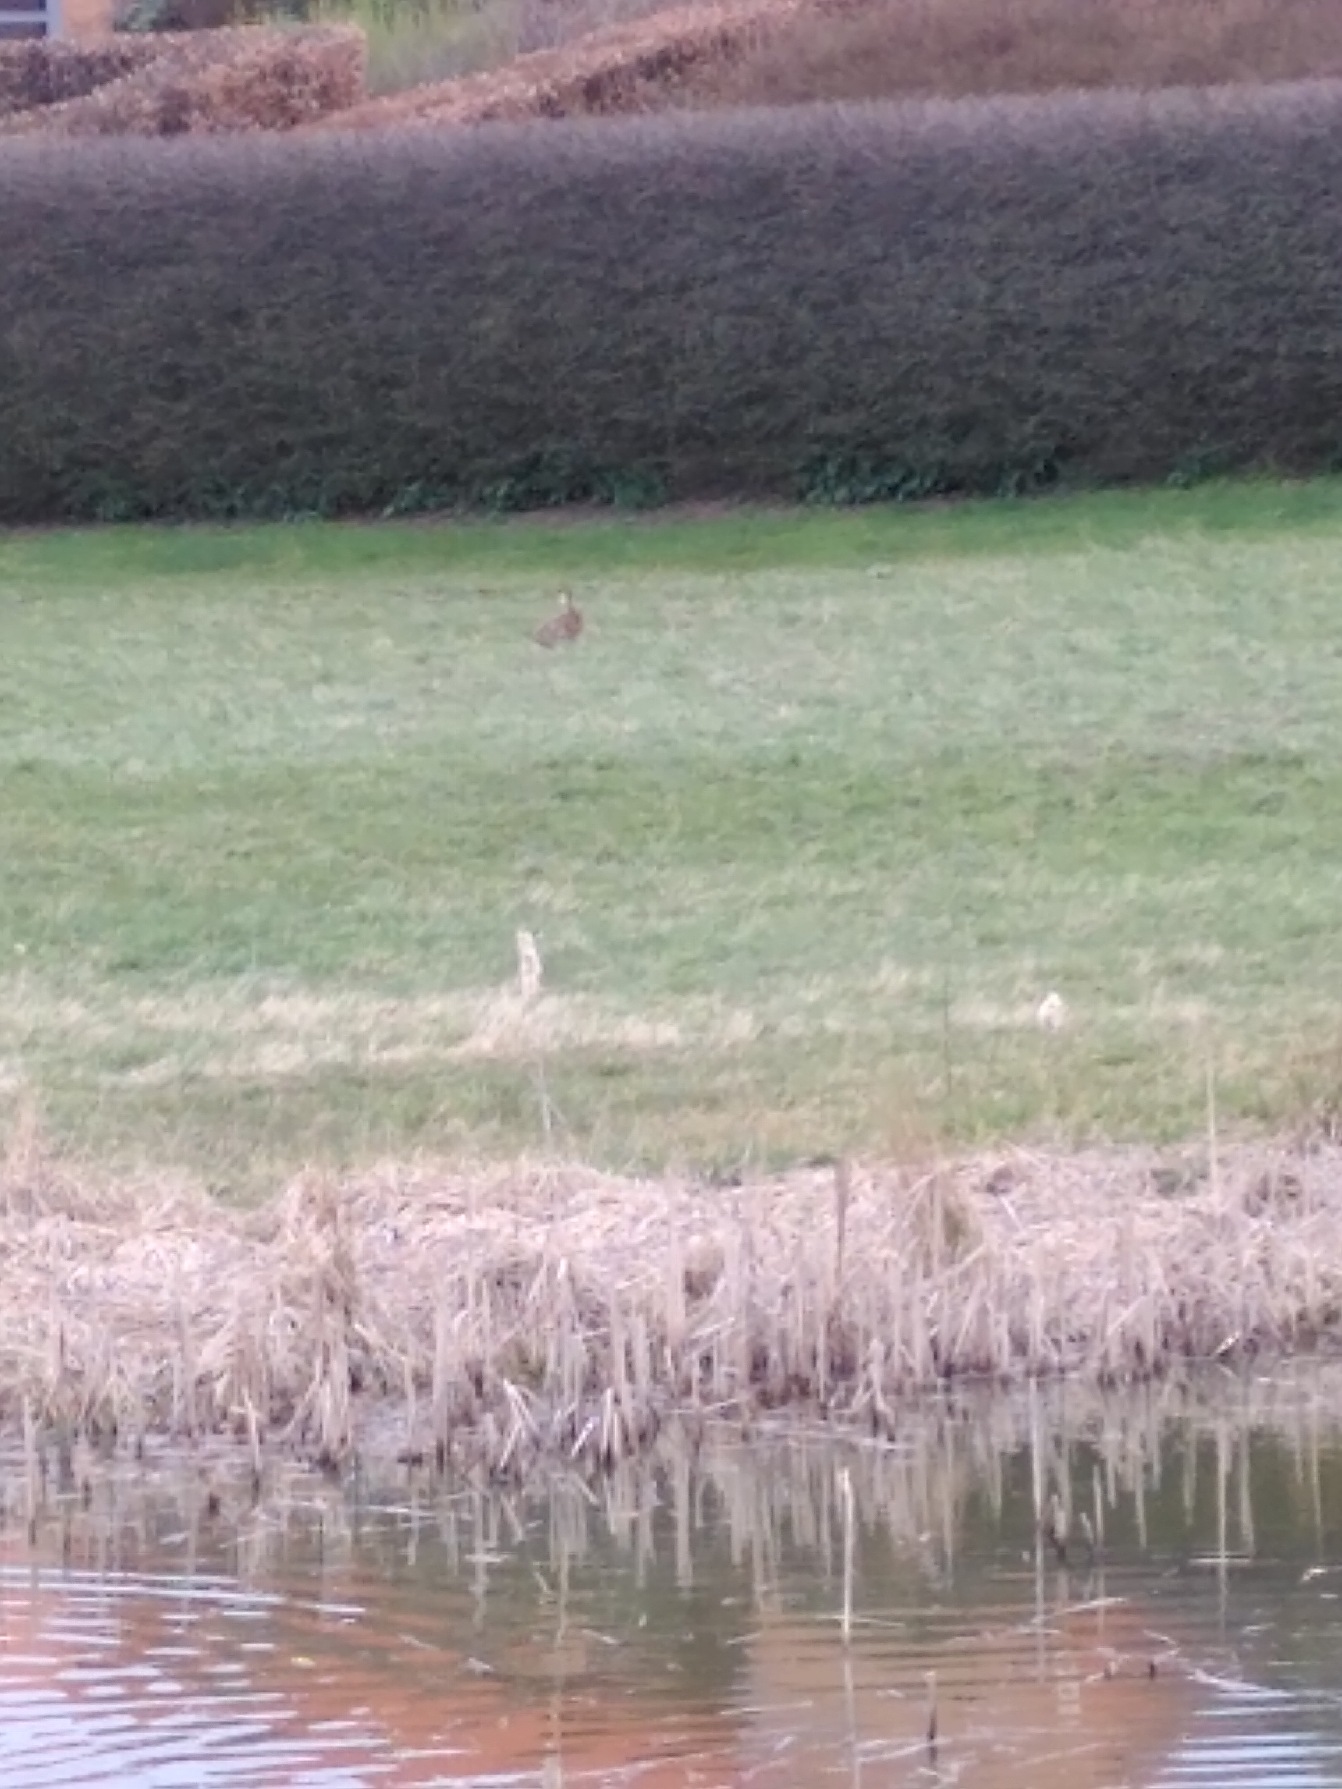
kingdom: Animalia
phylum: Chordata
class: Mammalia
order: Lagomorpha
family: Leporidae
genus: Lepus
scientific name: Lepus europaeus
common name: Hare
